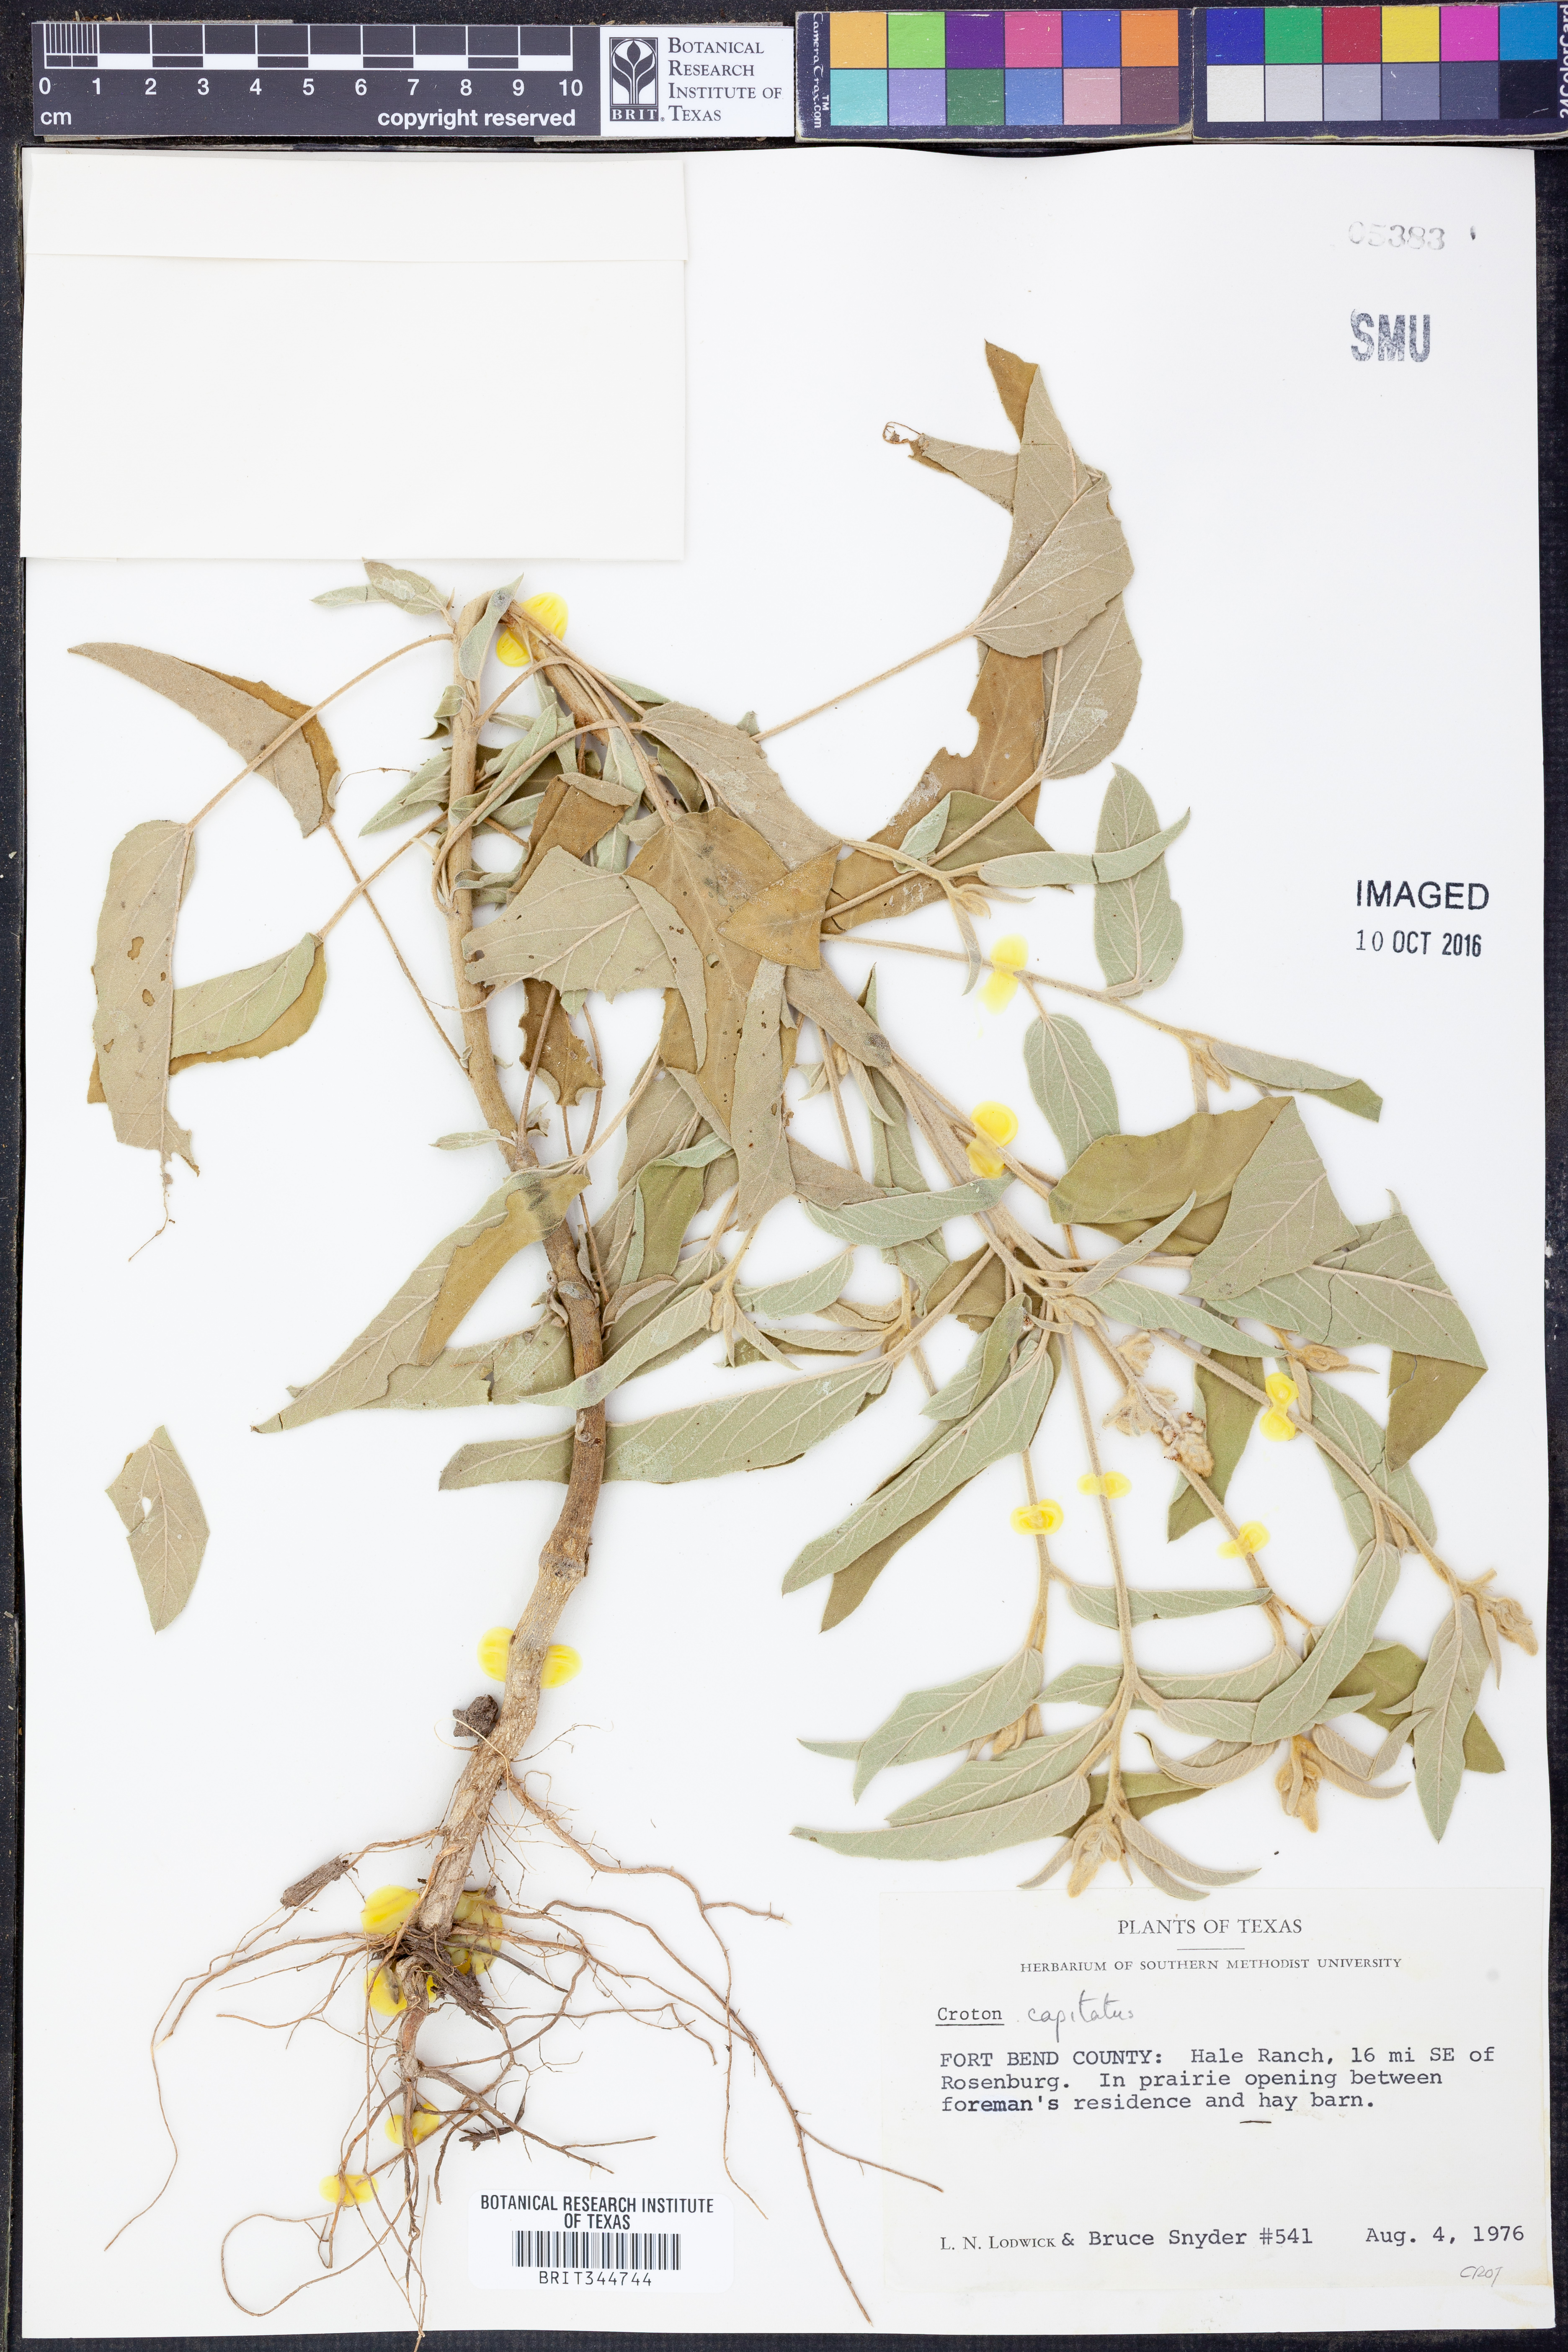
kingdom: Plantae
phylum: Tracheophyta
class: Magnoliopsida
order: Malpighiales
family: Euphorbiaceae
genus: Croton
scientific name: Croton capitatus
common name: Woolly croton
